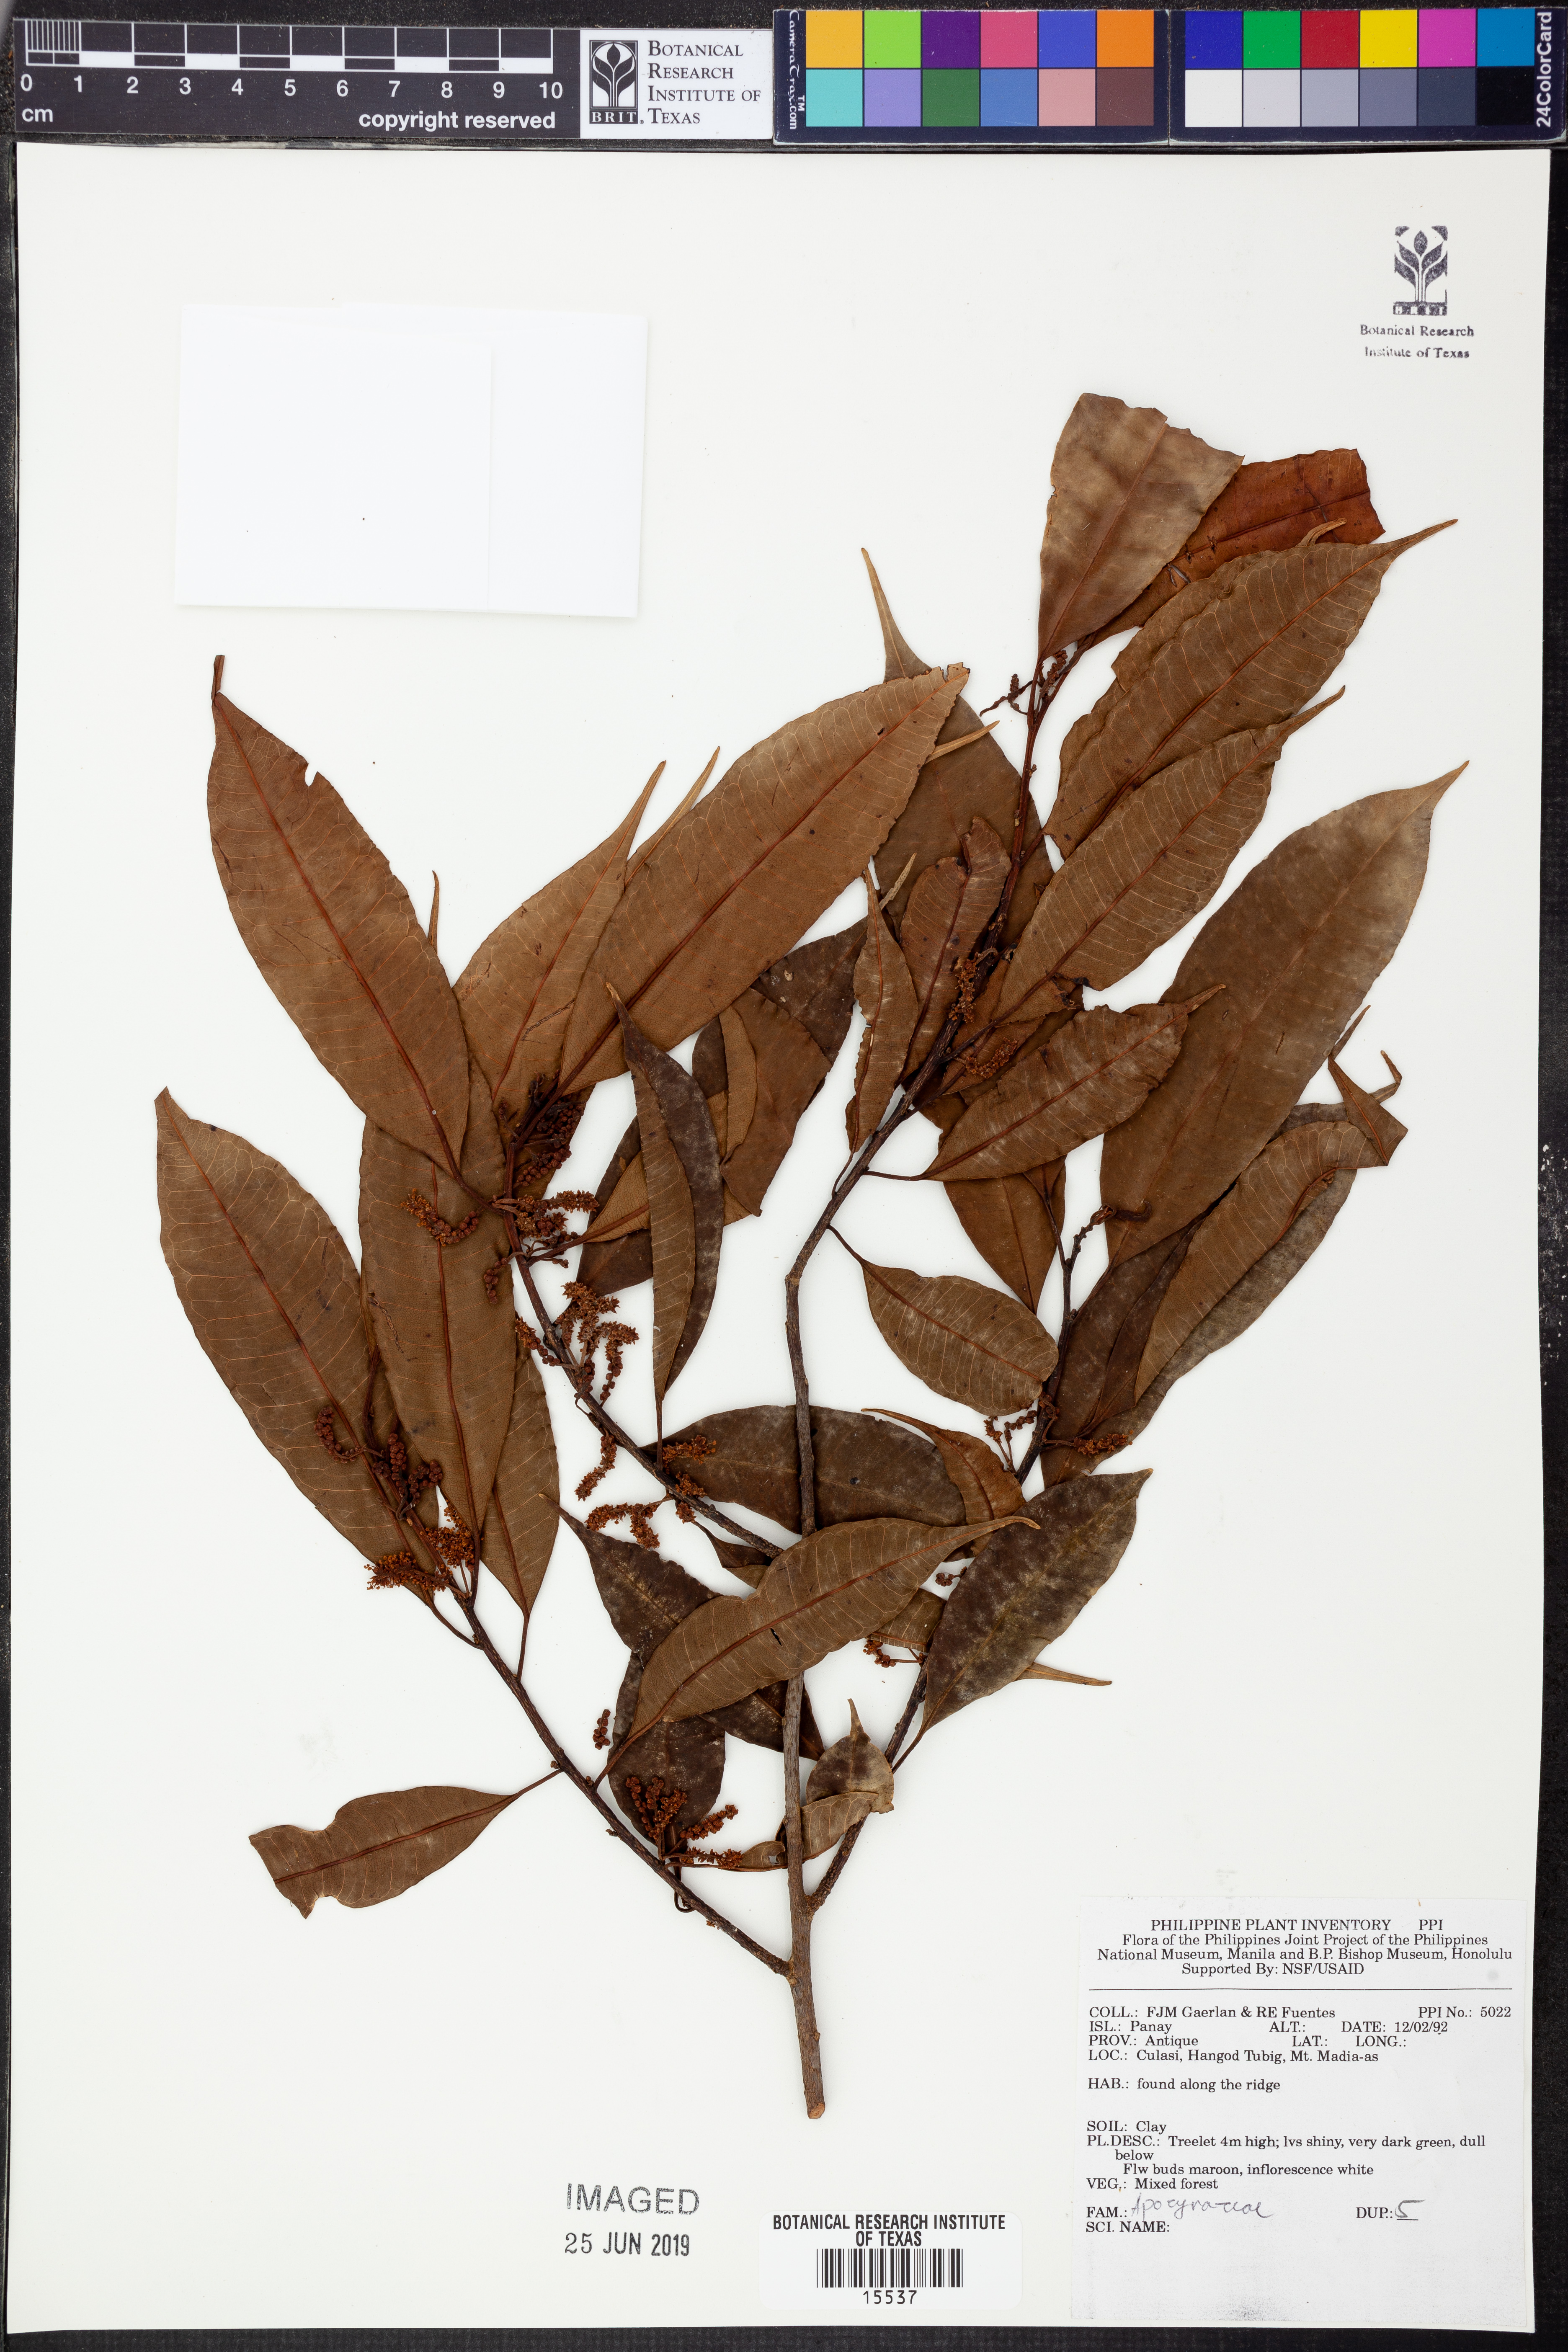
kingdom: Plantae
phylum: Tracheophyta
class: Magnoliopsida
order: Gentianales
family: Apocynaceae
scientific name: Apocynaceae
